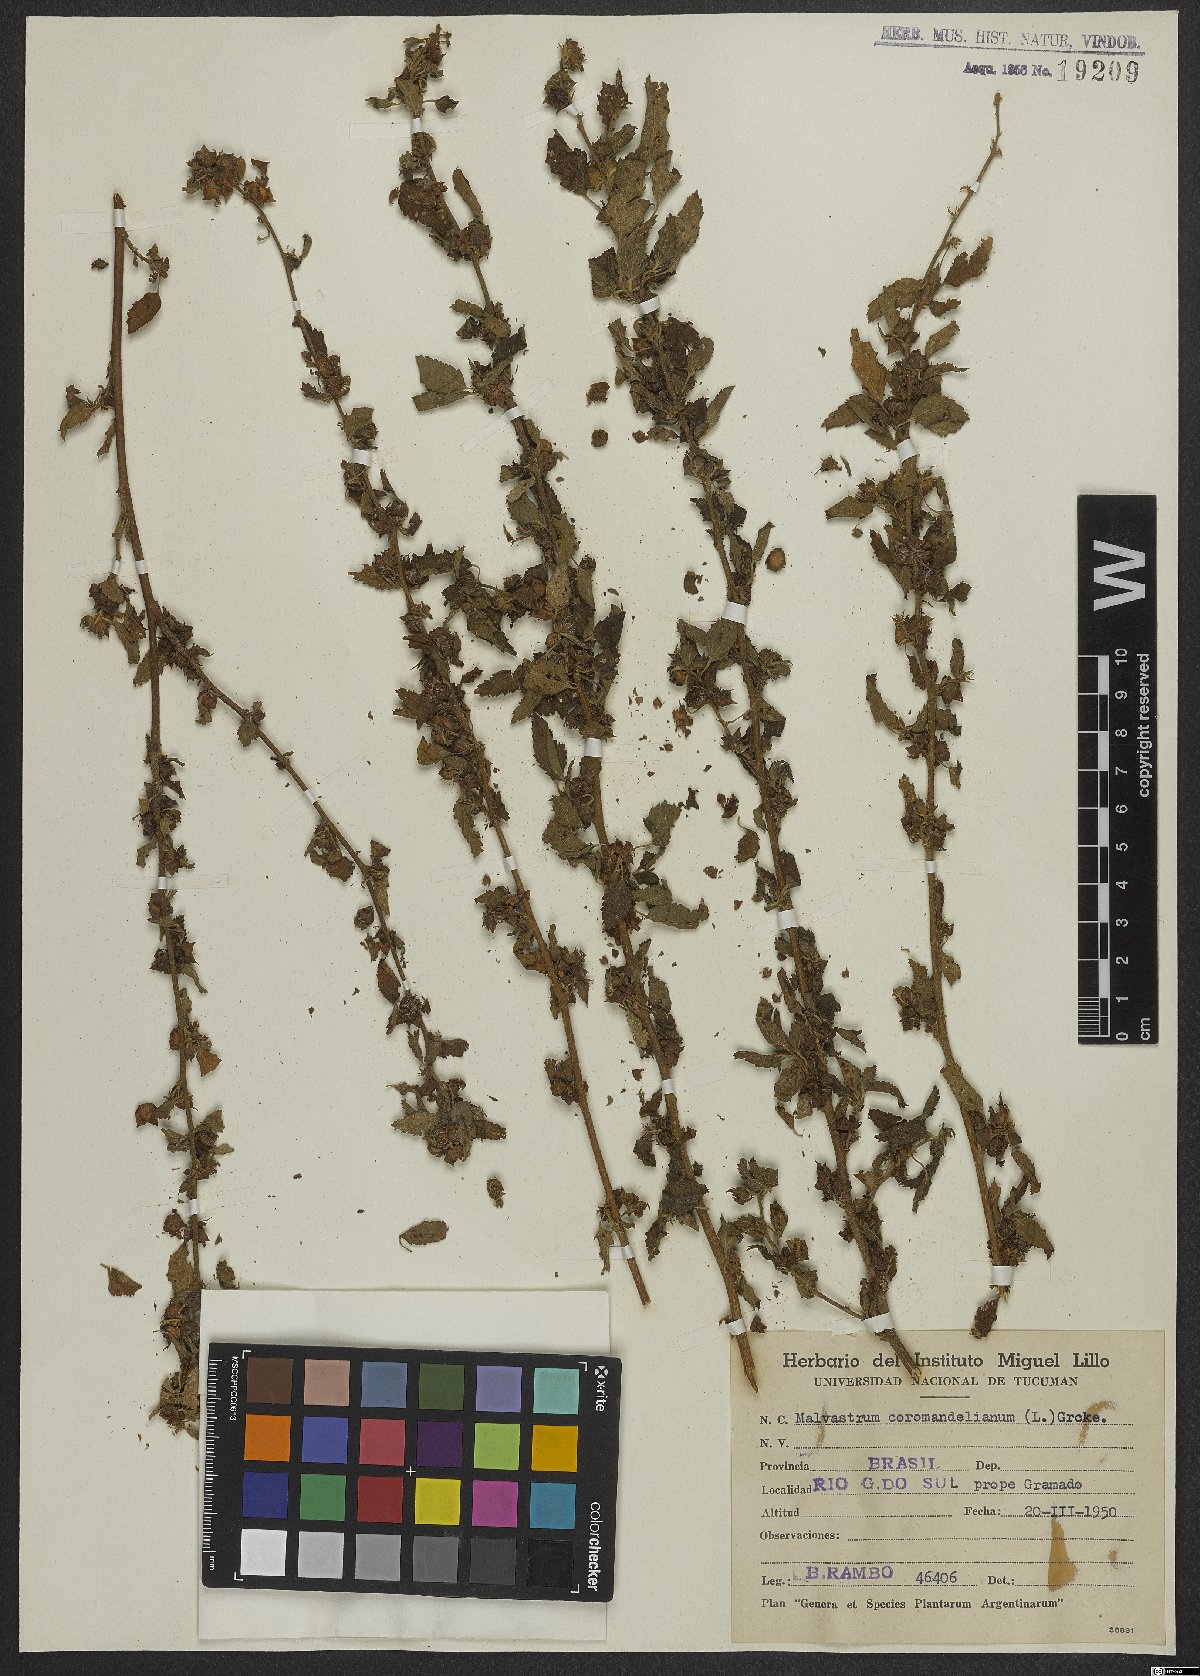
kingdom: Plantae
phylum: Tracheophyta
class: Magnoliopsida
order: Malvales
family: Malvaceae
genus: Malvastrum
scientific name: Malvastrum coromandelianum
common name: Threelobe false mallow
